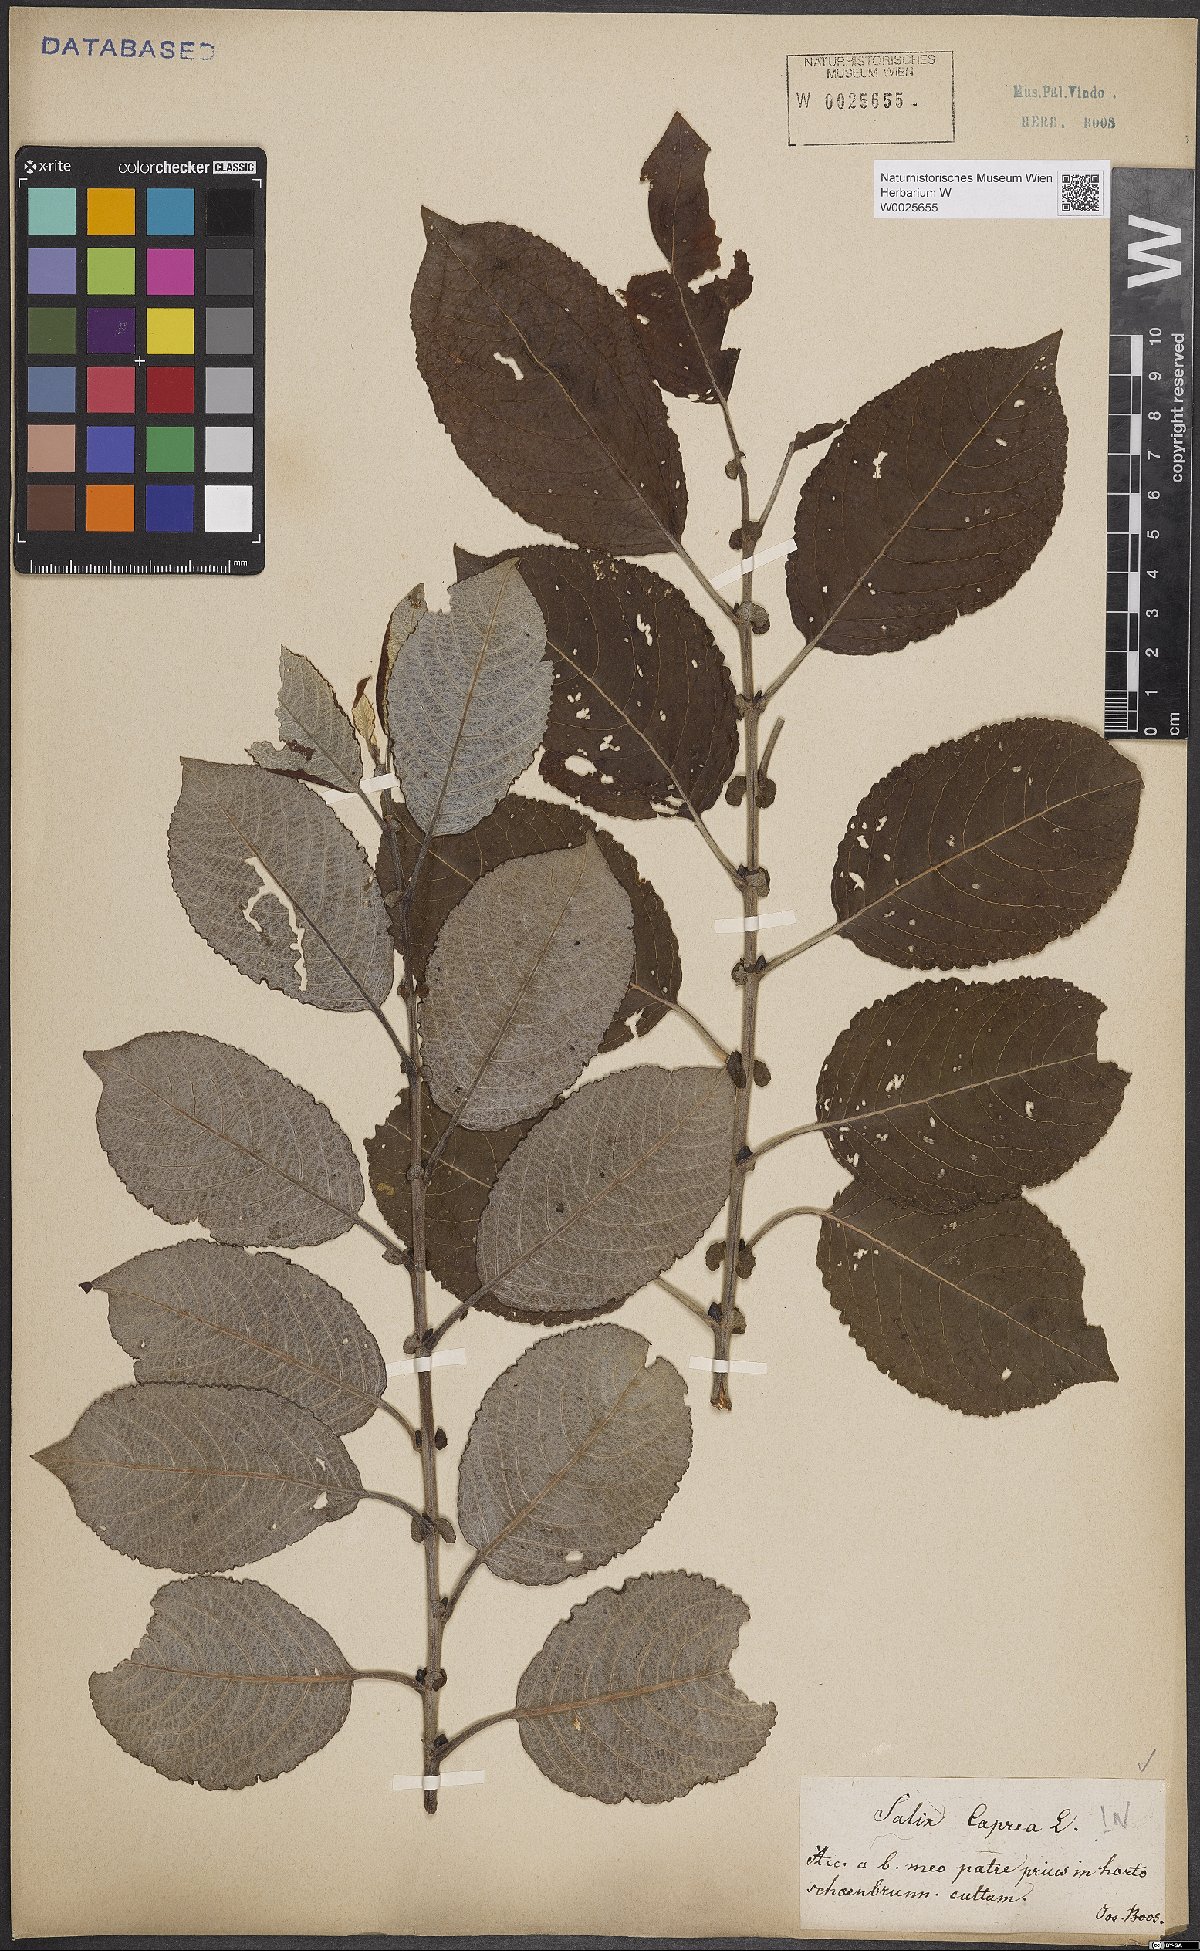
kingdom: Plantae
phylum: Tracheophyta
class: Magnoliopsida
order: Malpighiales
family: Salicaceae
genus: Salix
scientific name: Salix caprea
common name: Goat willow
